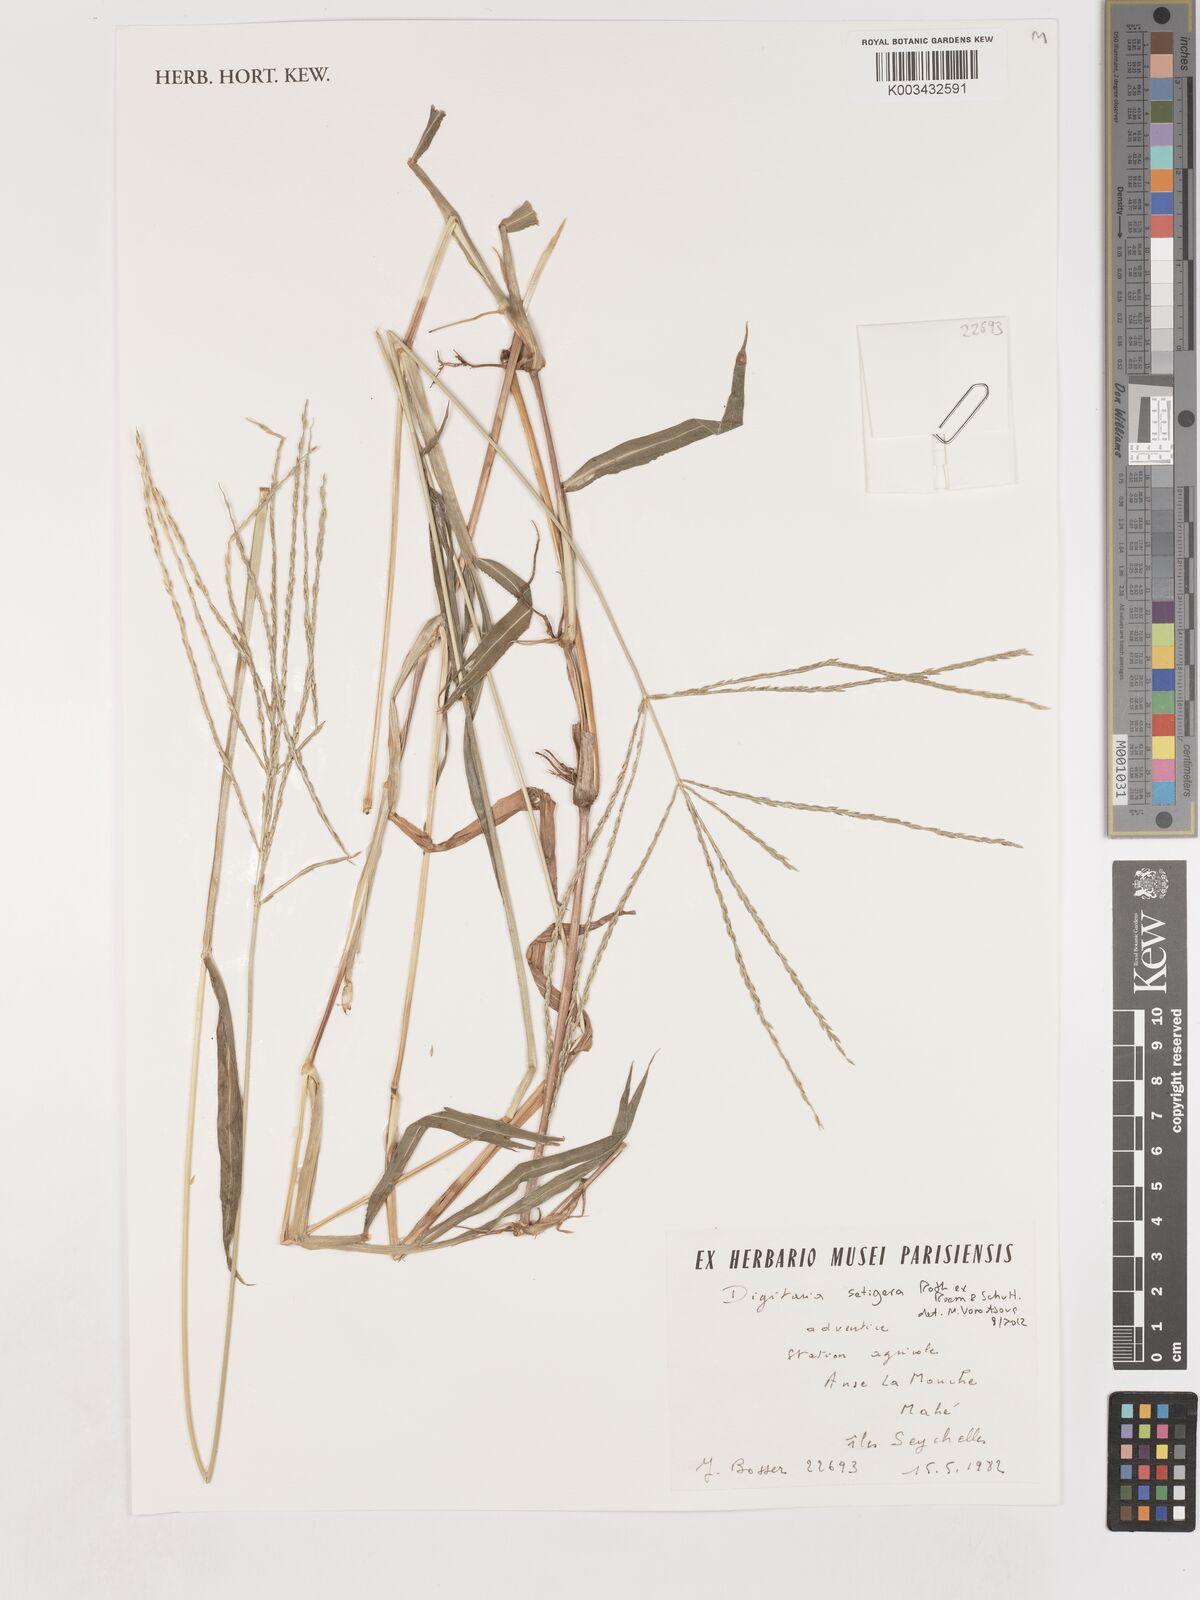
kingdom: Plantae
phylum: Tracheophyta
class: Liliopsida
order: Poales
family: Poaceae
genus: Digitaria
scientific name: Digitaria setigera
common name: East indian crabgrass
